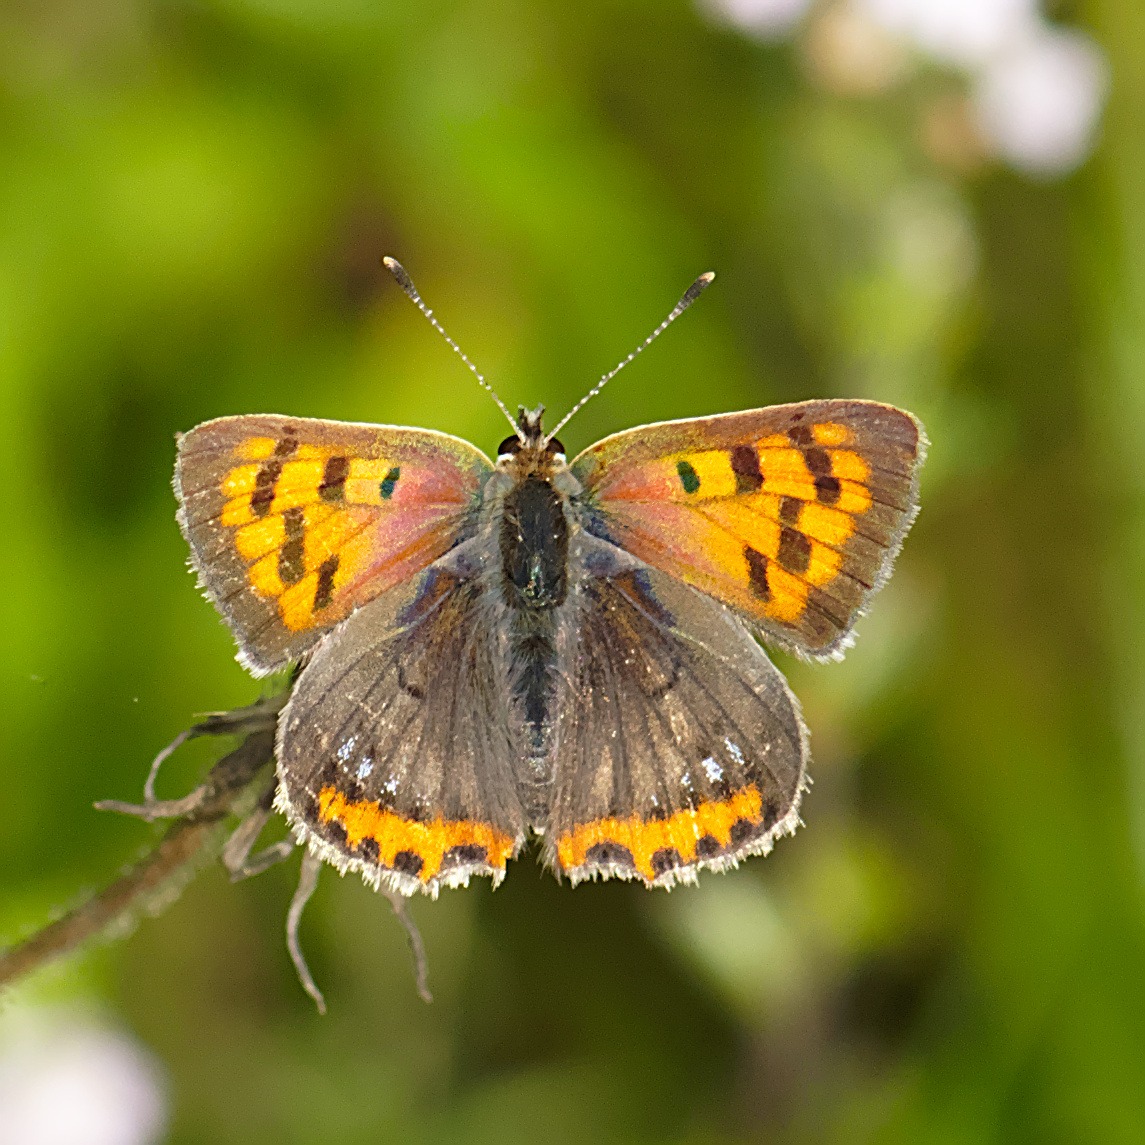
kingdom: Animalia
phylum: Arthropoda
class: Insecta
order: Lepidoptera
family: Lycaenidae
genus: Lycaena
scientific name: Lycaena phlaeas
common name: Lille ildfugl
